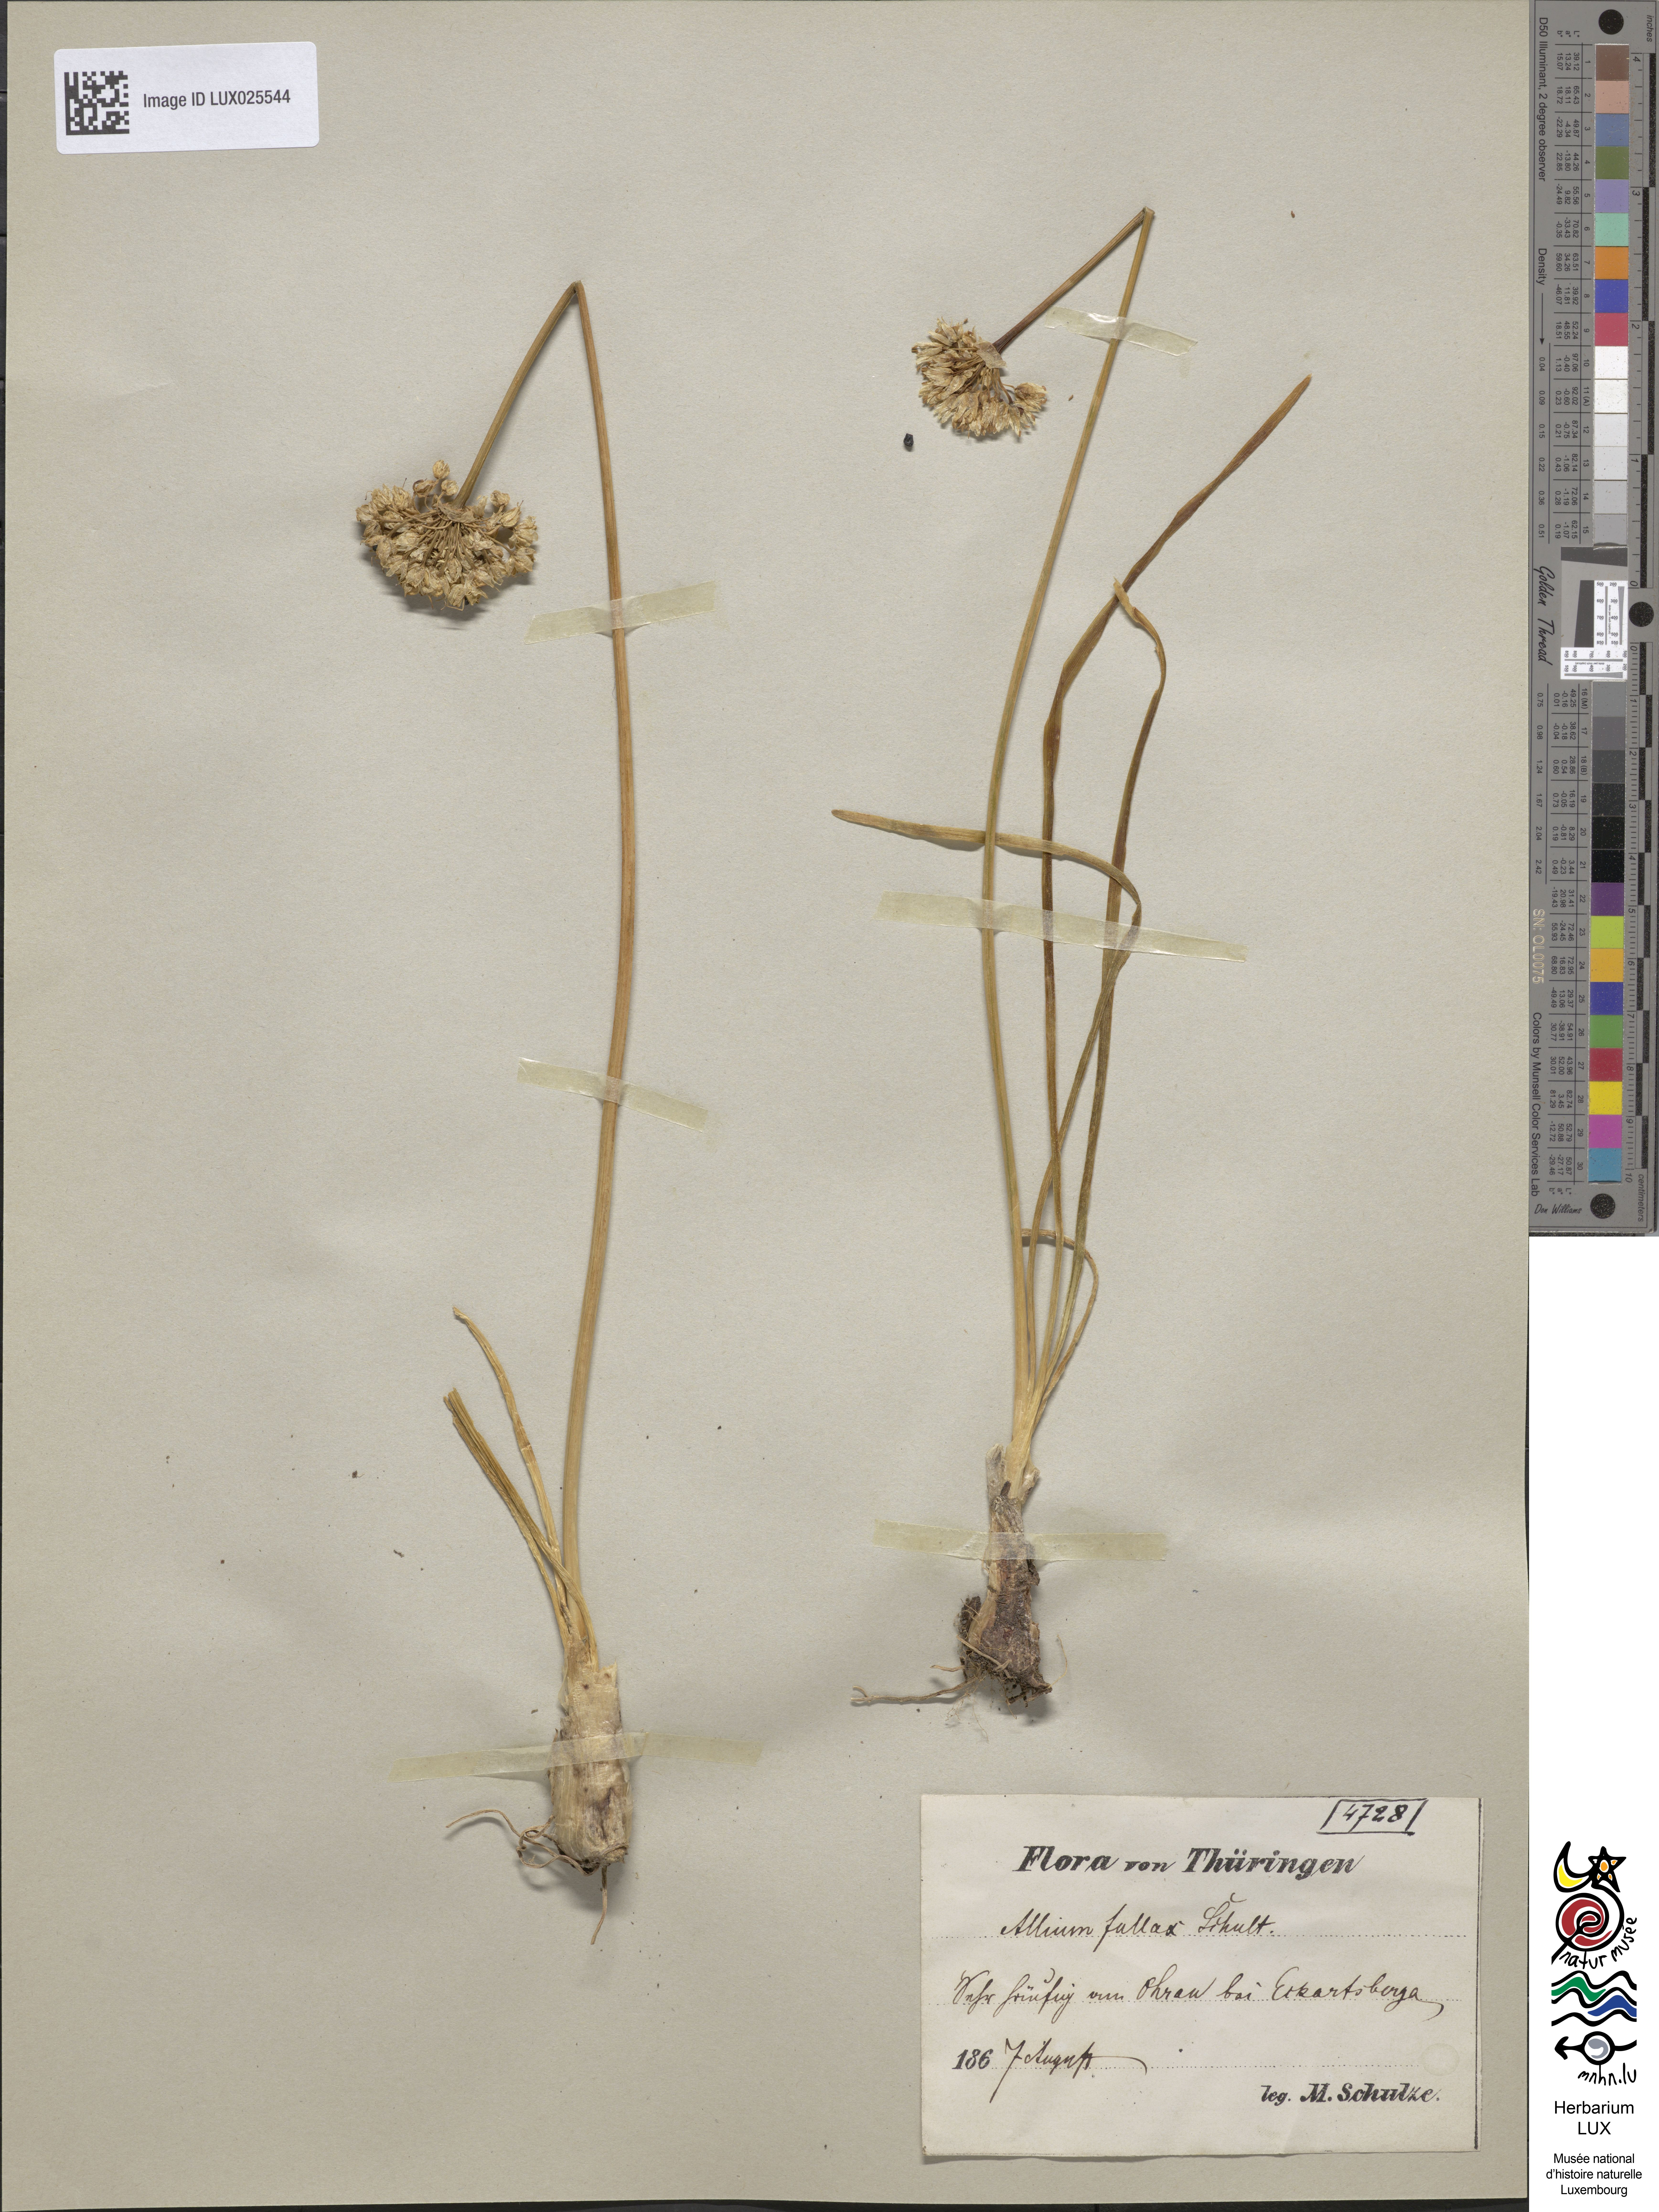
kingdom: Plantae
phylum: Tracheophyta
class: Liliopsida
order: Asparagales
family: Amaryllidaceae
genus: Allium
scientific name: Allium lusitanicum
